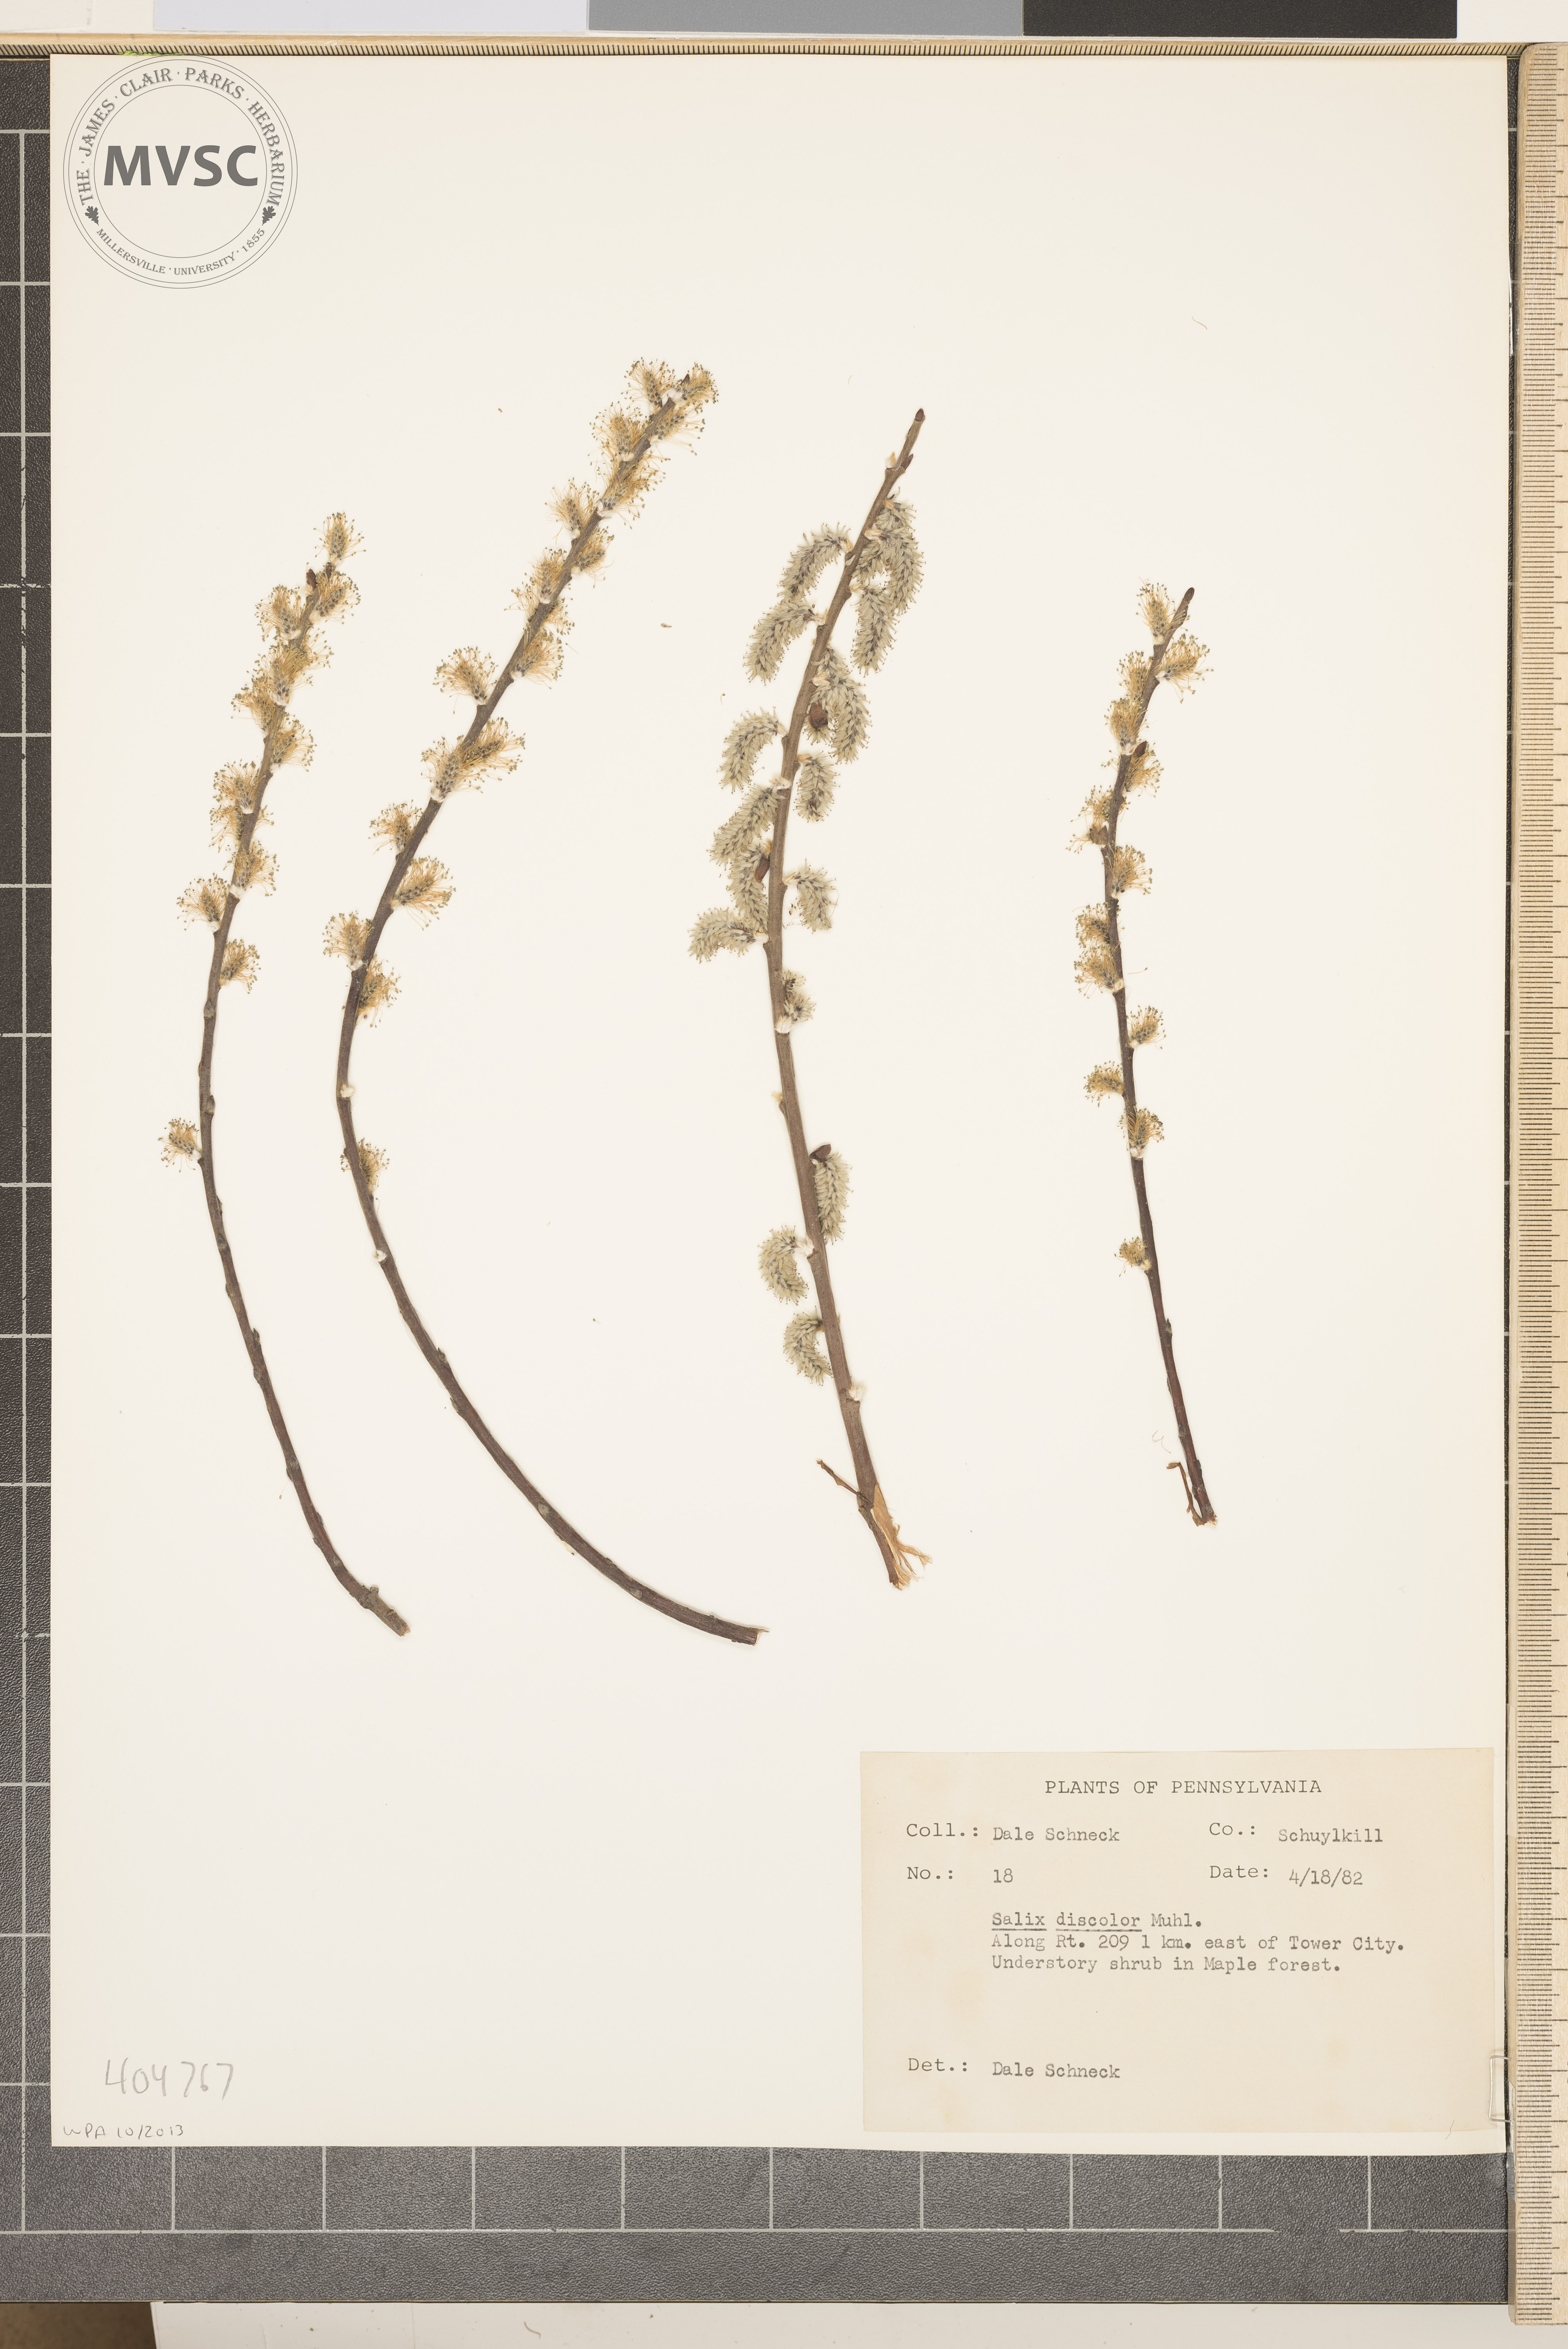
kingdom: Plantae
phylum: Tracheophyta
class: Magnoliopsida
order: Malpighiales
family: Salicaceae
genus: Salix
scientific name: Salix discolor
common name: Glaucous willow
